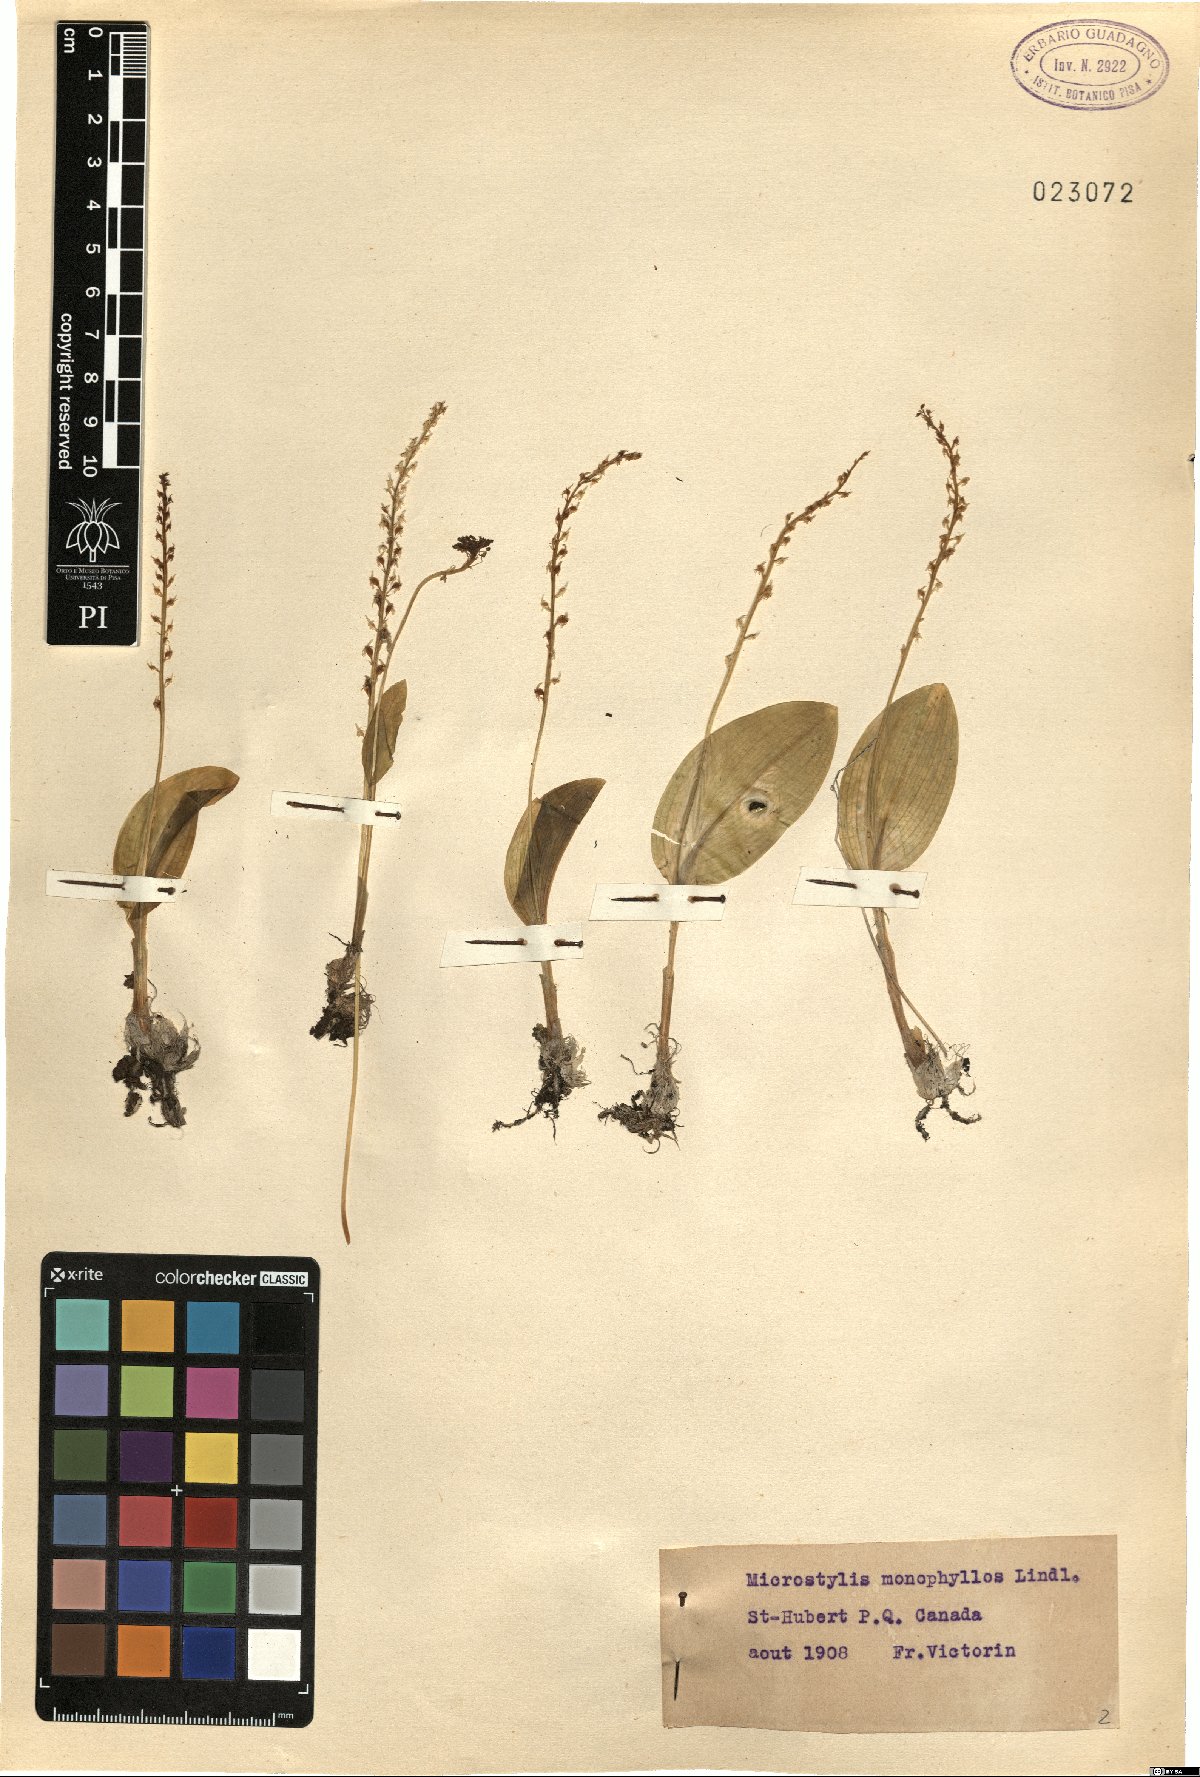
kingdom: Plantae
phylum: Tracheophyta
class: Liliopsida
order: Asparagales
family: Orchidaceae
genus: Malaxis
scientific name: Malaxis monophyllos
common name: White adder's-mouth
